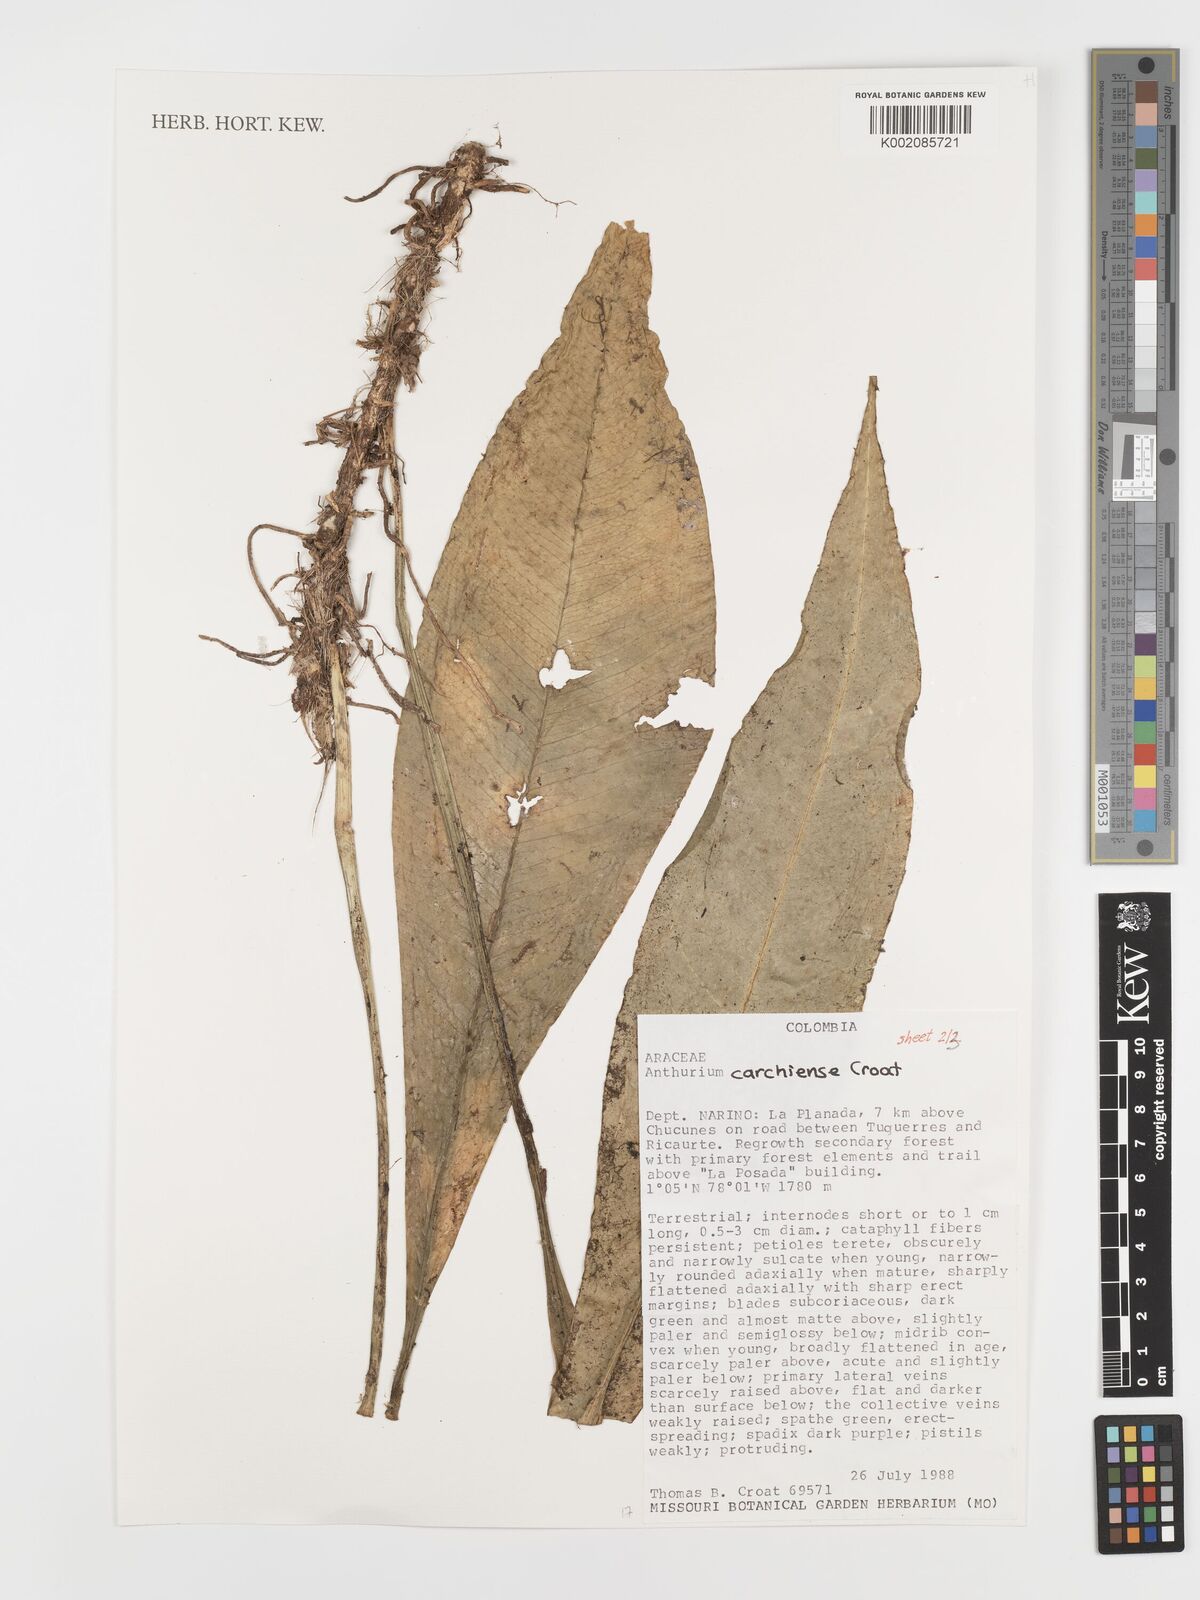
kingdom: Plantae
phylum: Tracheophyta
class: Liliopsida
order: Alismatales
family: Araceae
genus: Anthurium
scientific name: Anthurium carchiense
